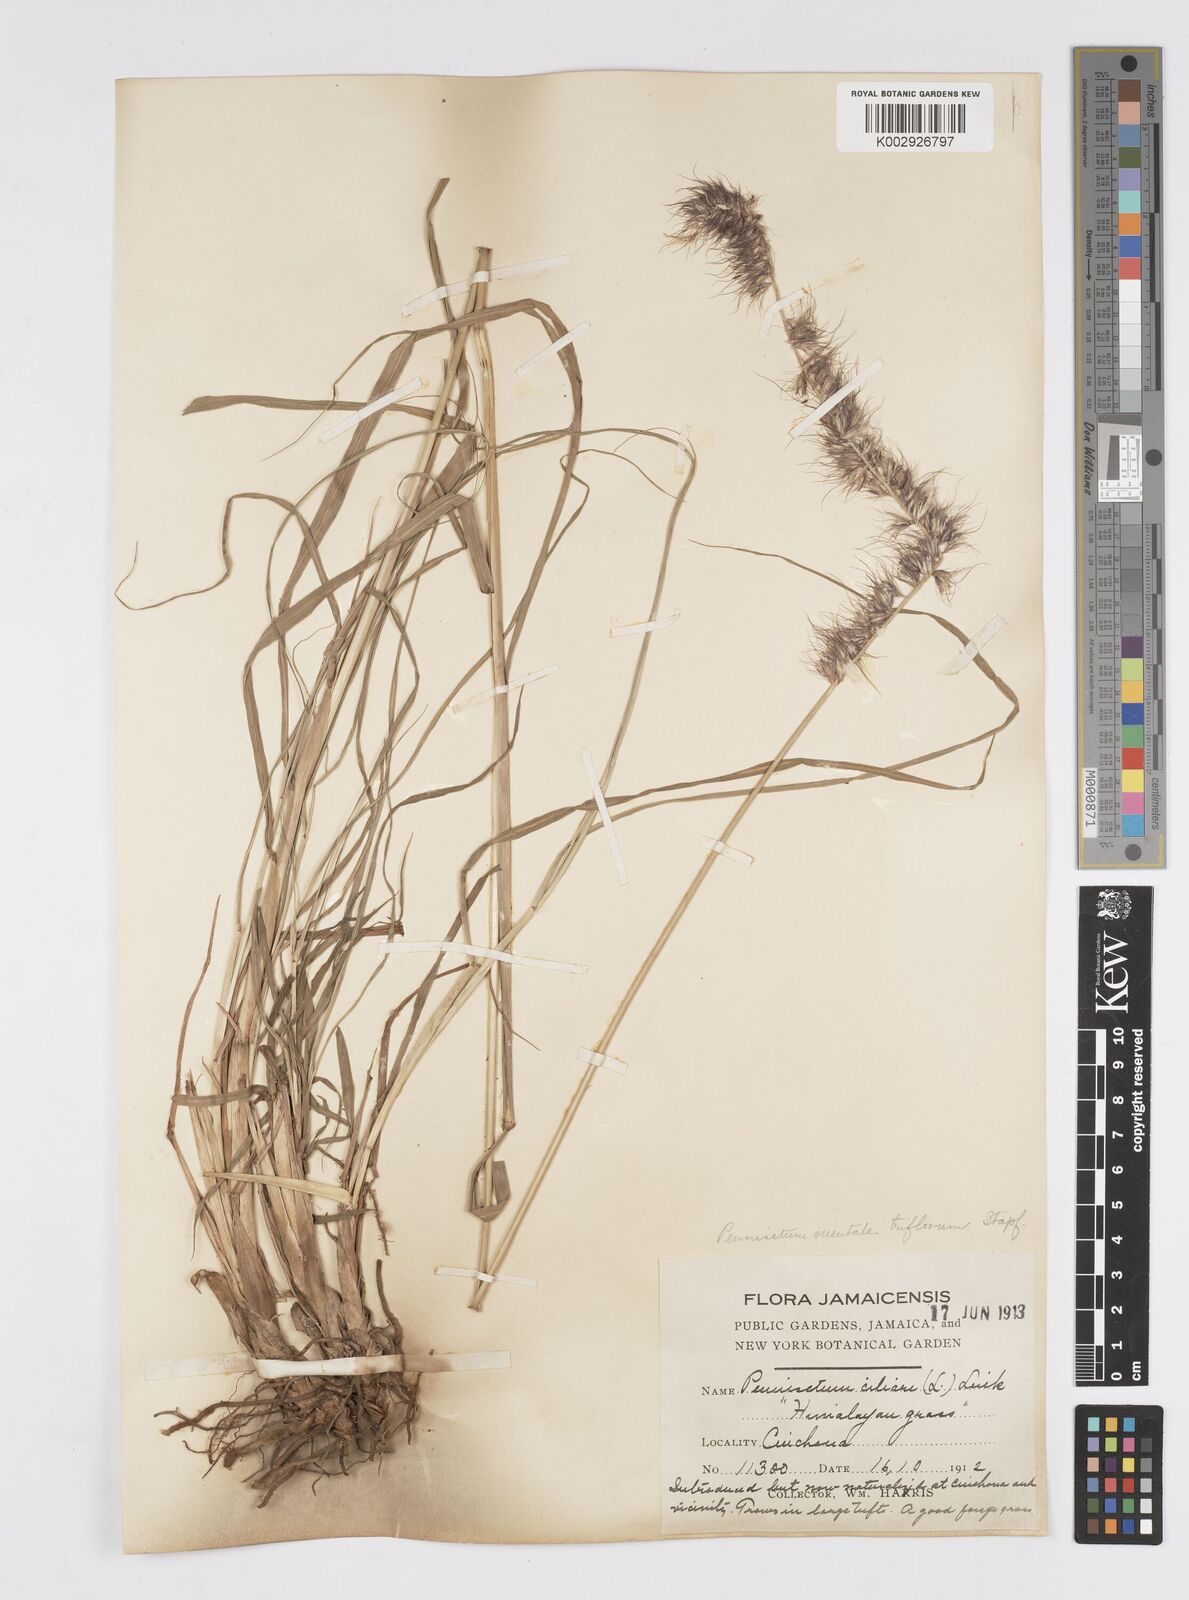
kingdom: Plantae
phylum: Tracheophyta
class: Liliopsida
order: Poales
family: Poaceae
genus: Cenchrus
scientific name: Cenchrus Pennisetum spec
